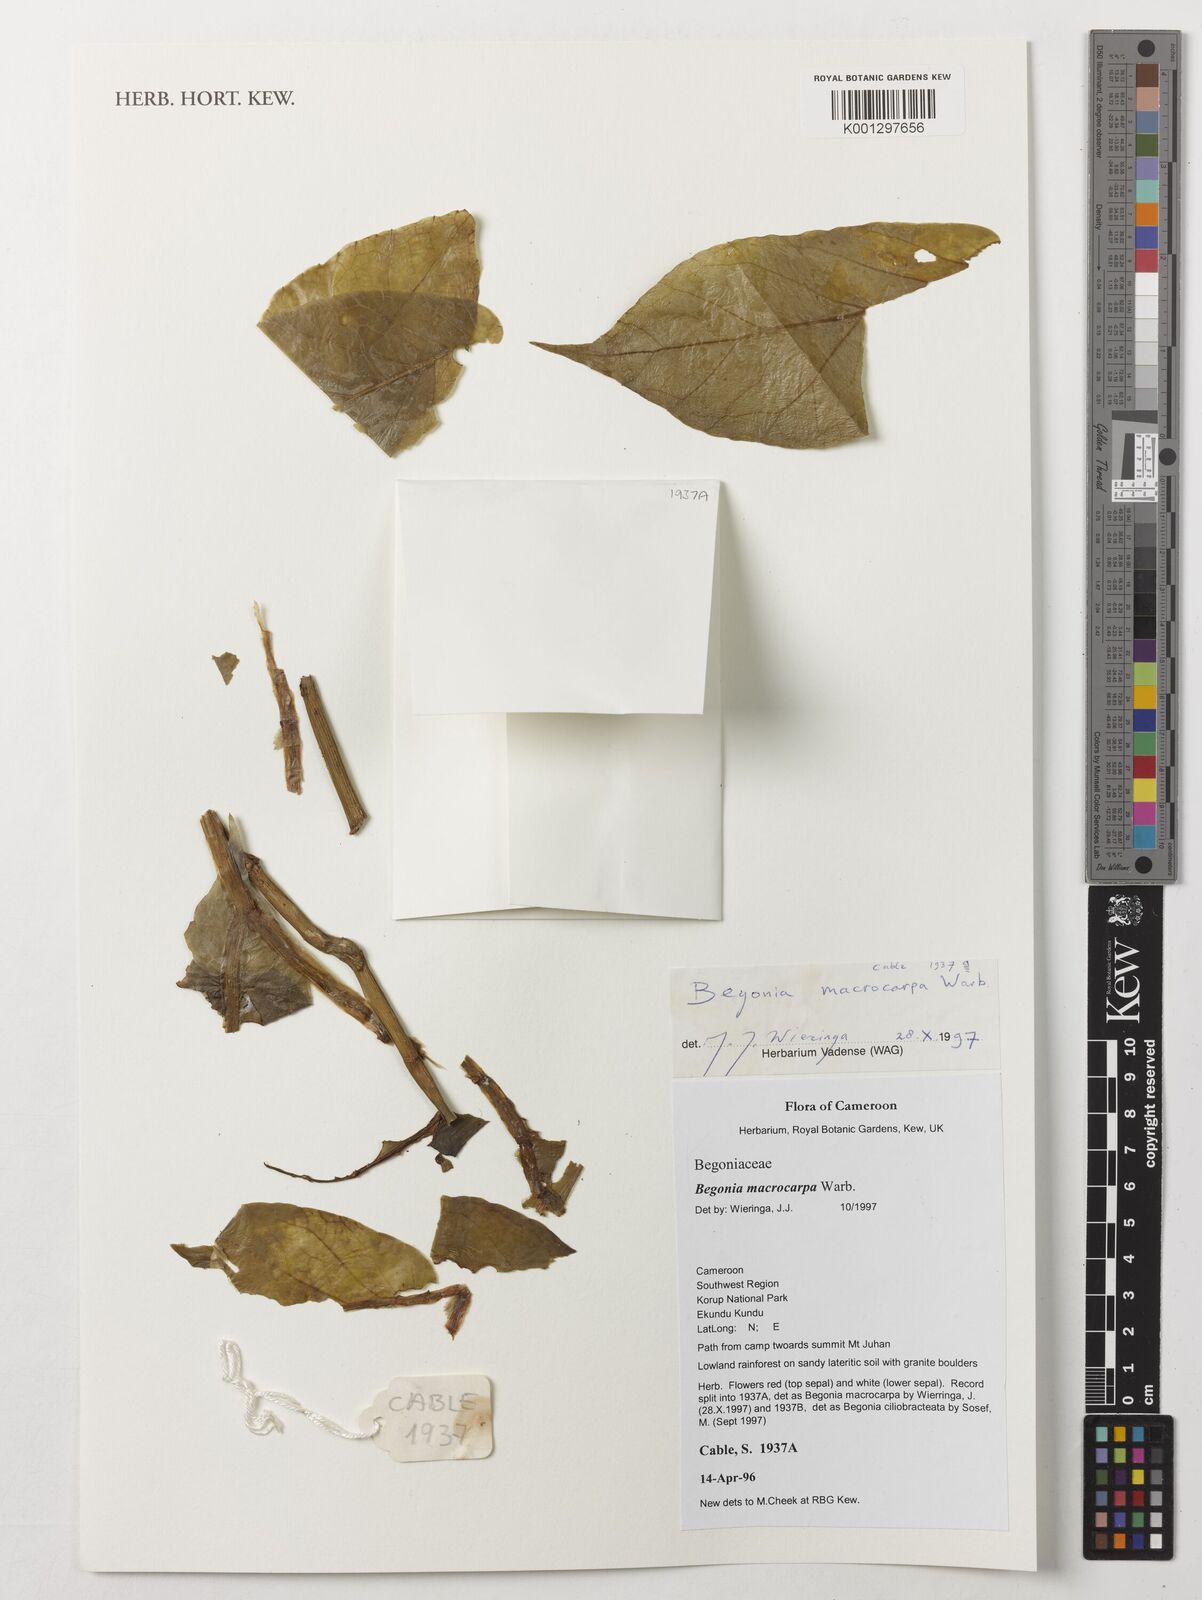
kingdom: Plantae
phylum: Tracheophyta
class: Magnoliopsida
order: Cucurbitales
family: Begoniaceae
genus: Begonia
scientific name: Begonia macrocarpa
